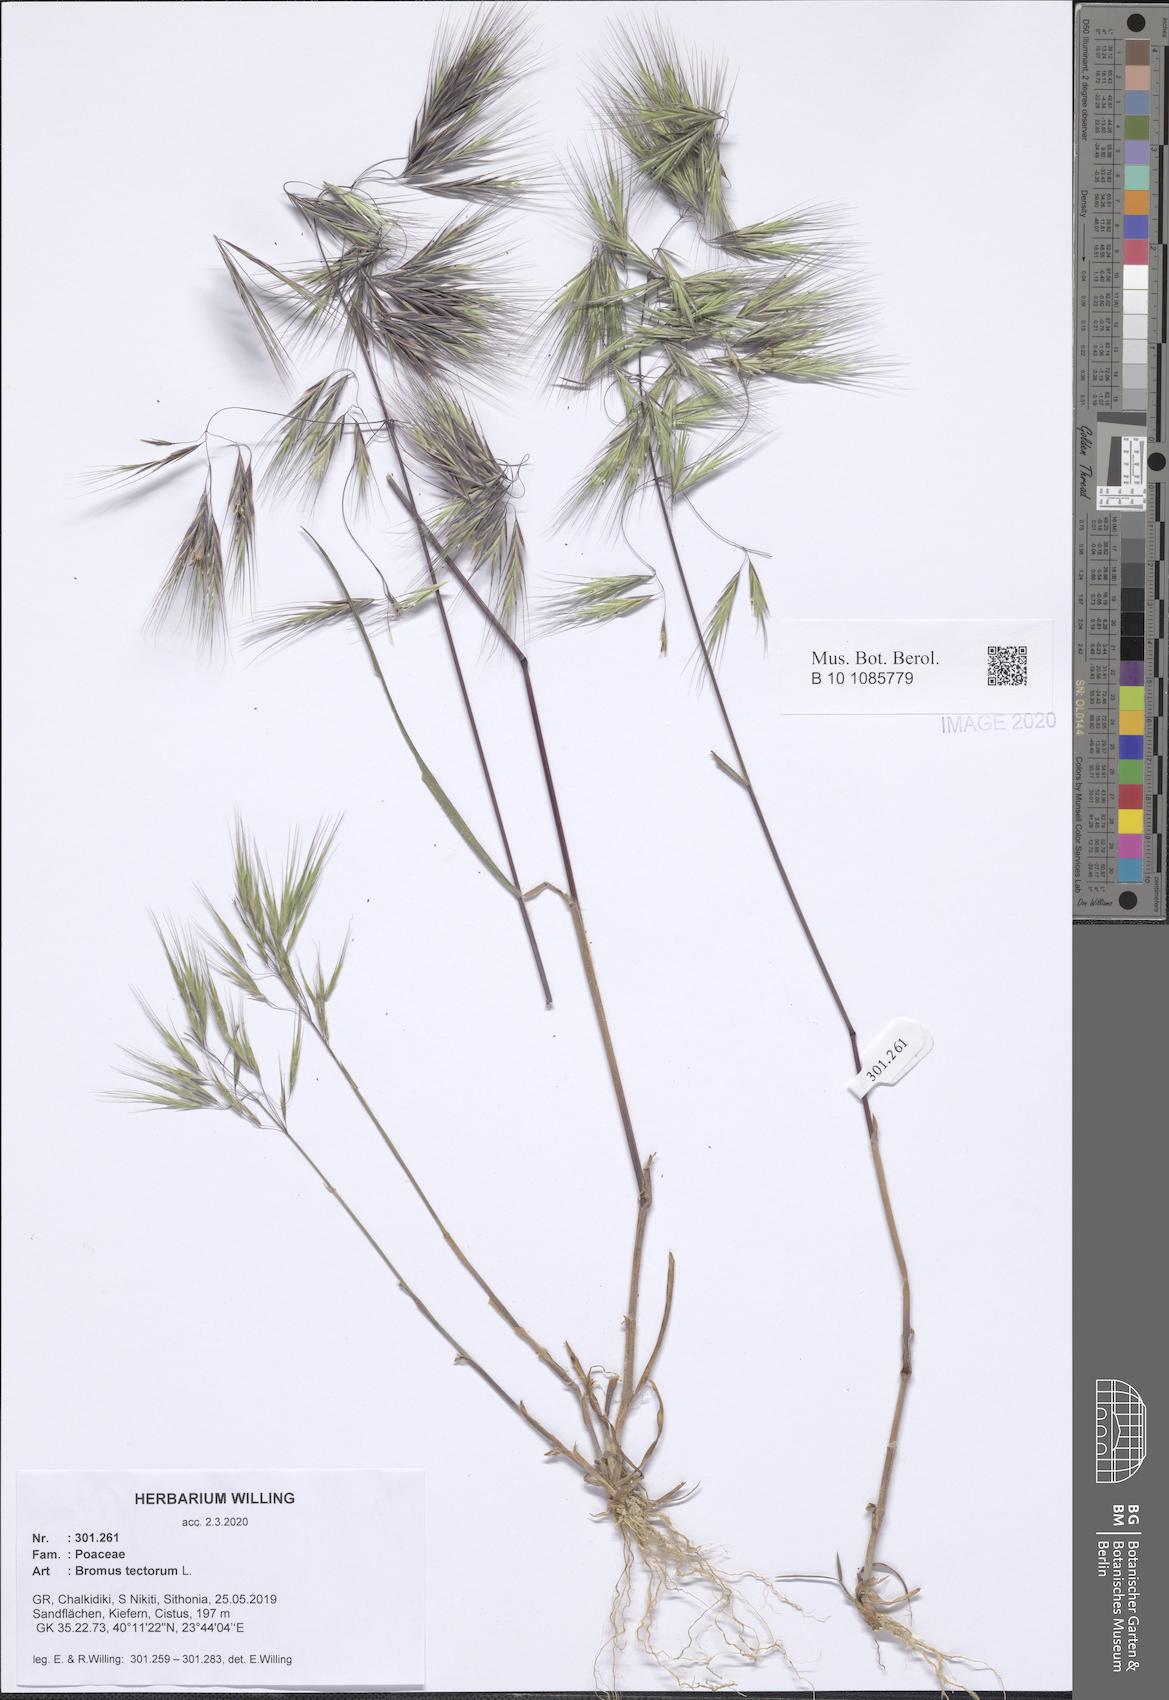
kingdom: Plantae
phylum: Tracheophyta
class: Liliopsida
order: Poales
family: Poaceae
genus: Bromus
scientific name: Bromus tectorum
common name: Cheatgrass
